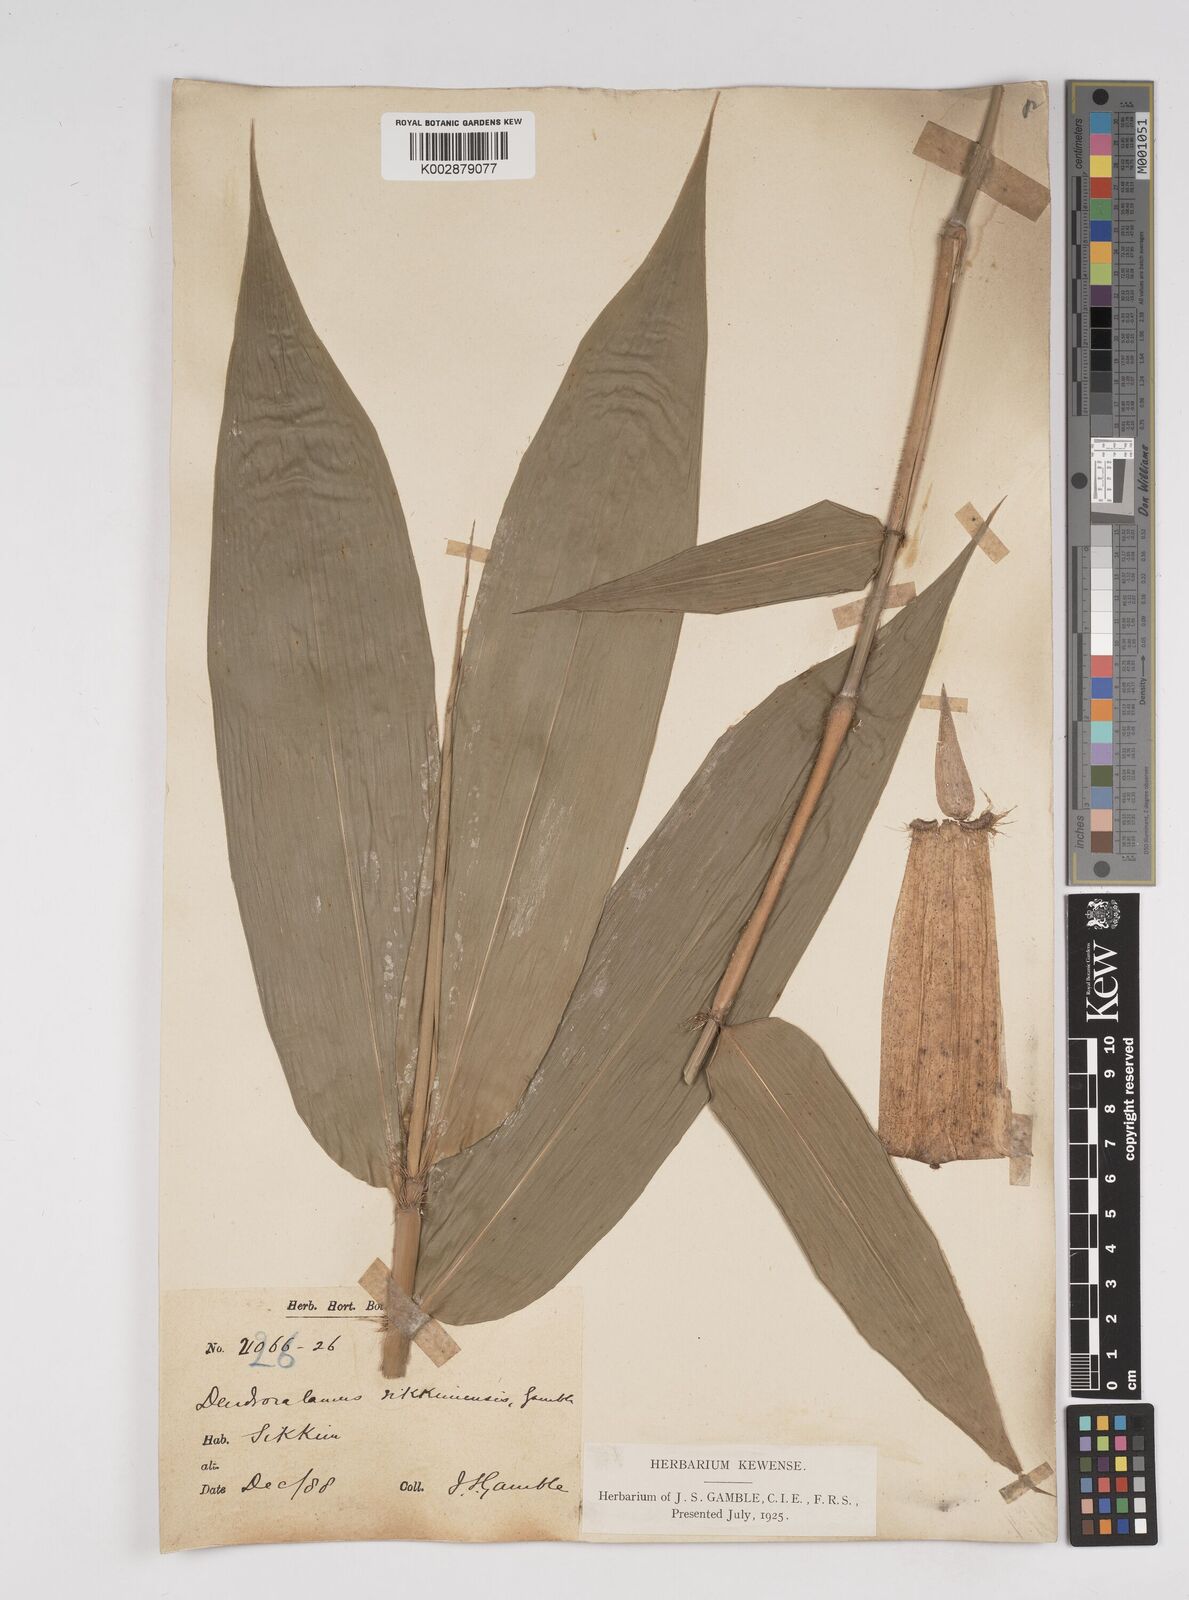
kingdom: Plantae
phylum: Tracheophyta
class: Liliopsida
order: Poales
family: Poaceae
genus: Dendrocalamus
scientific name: Dendrocalamus sikkimensis
